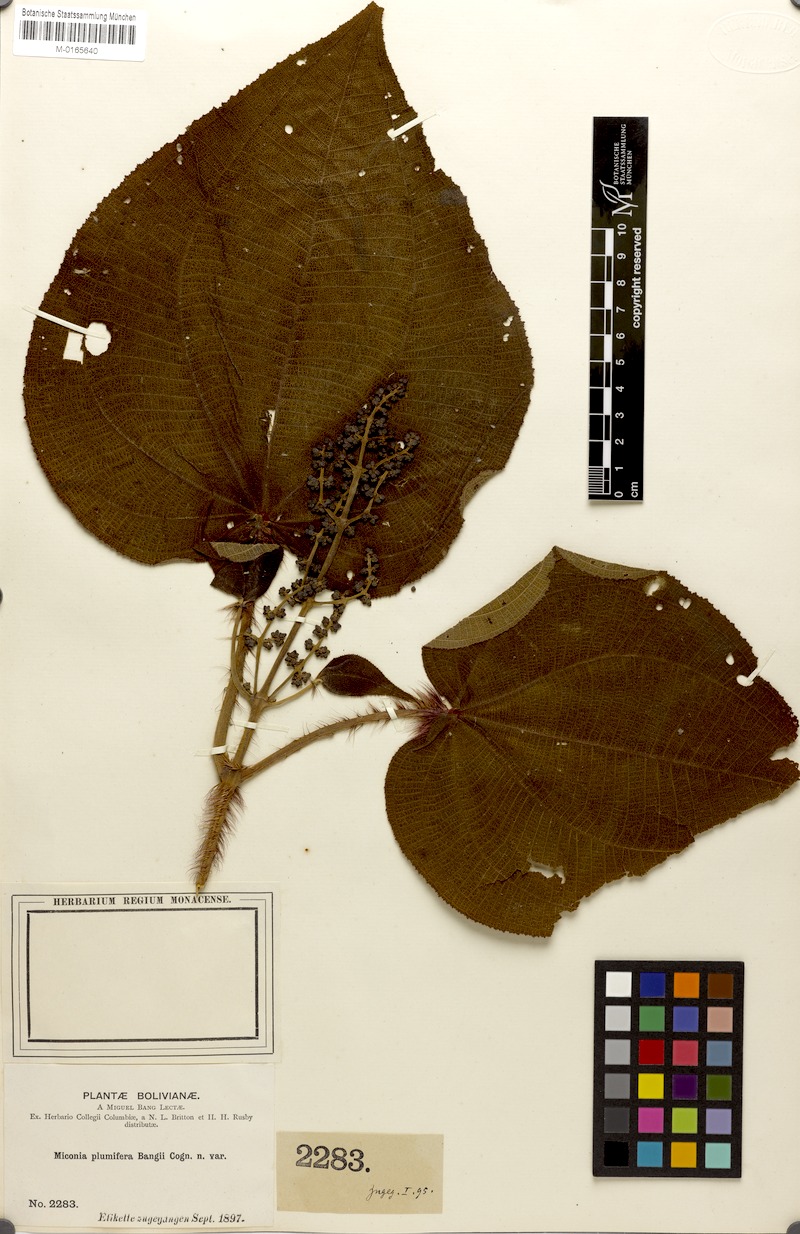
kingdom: Plantae
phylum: Tracheophyta
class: Magnoliopsida
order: Myrtales
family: Melastomataceae
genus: Miconia
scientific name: Miconia plumifera
